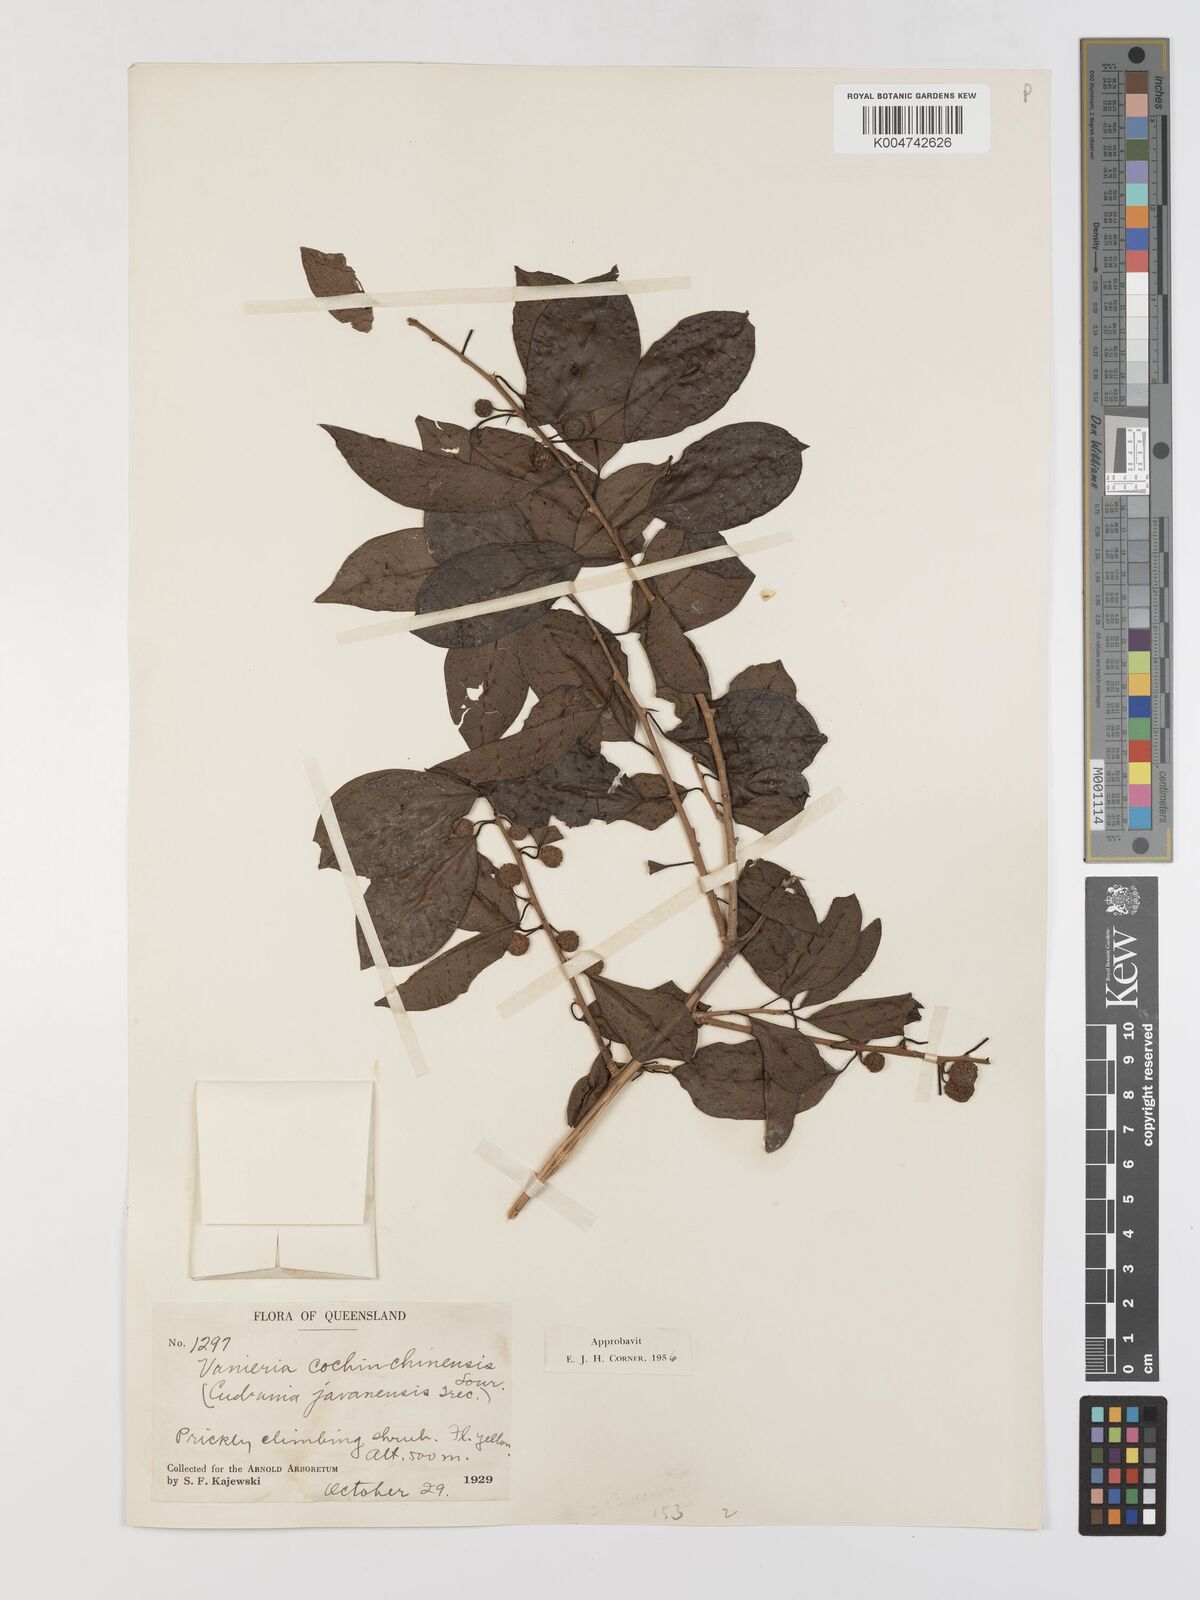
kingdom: Plantae
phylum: Tracheophyta
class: Magnoliopsida
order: Rosales
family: Moraceae
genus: Maclura
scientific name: Maclura cochinchinensis
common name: Cockspurthorn
